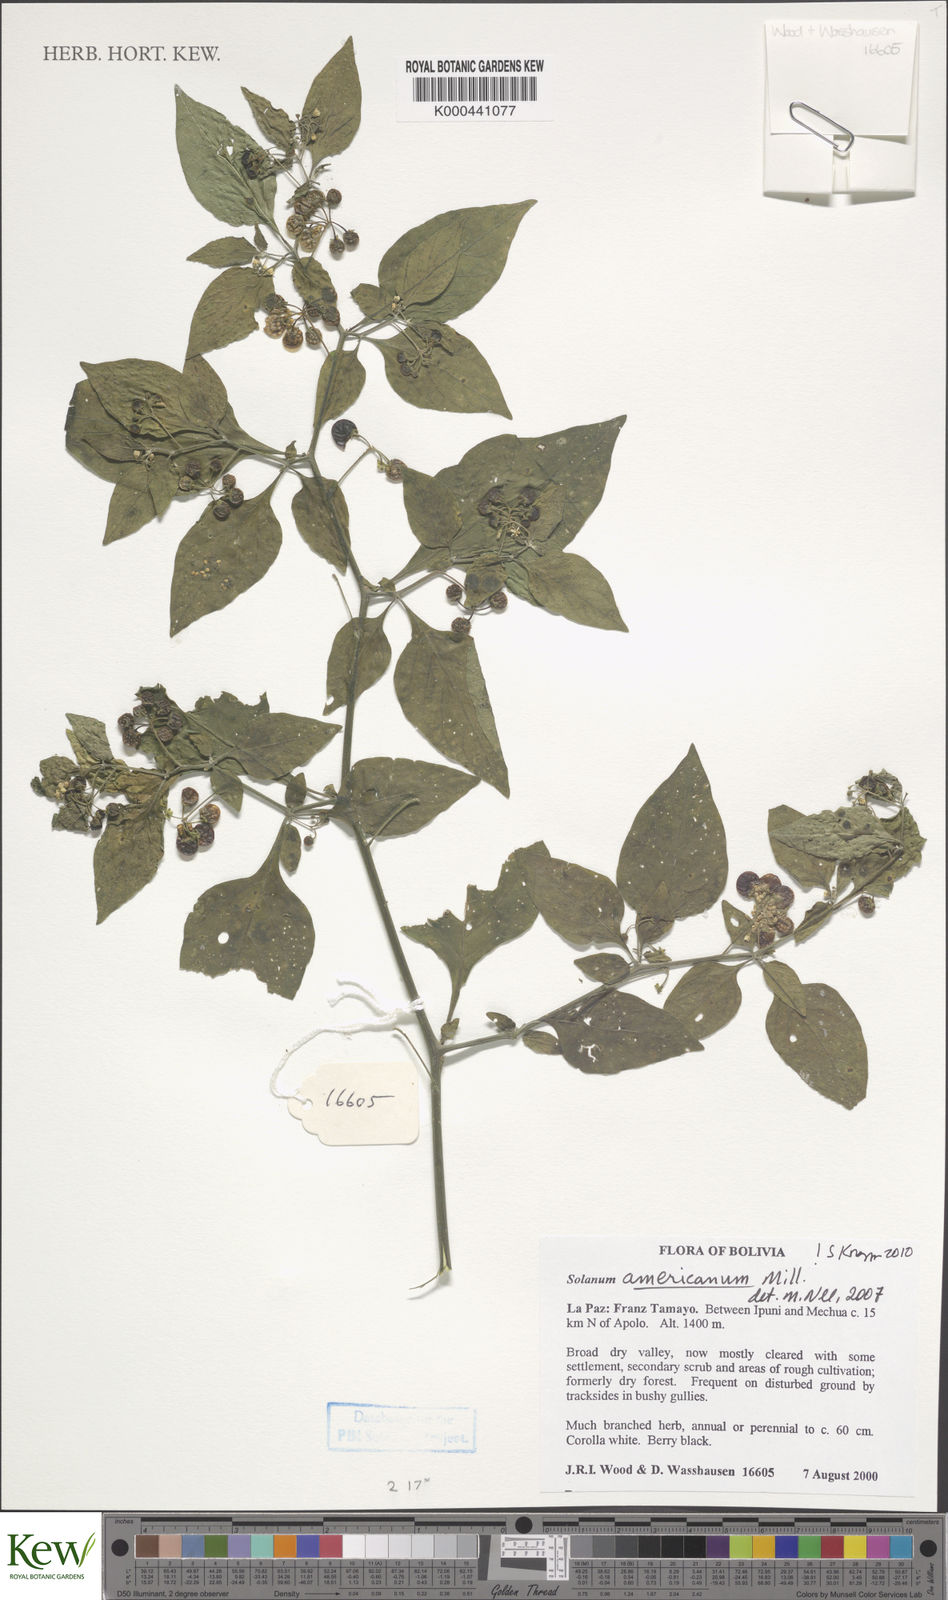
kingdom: Plantae
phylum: Tracheophyta
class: Magnoliopsida
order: Solanales
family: Solanaceae
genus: Solanum
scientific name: Solanum americanum
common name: American black nightshade
